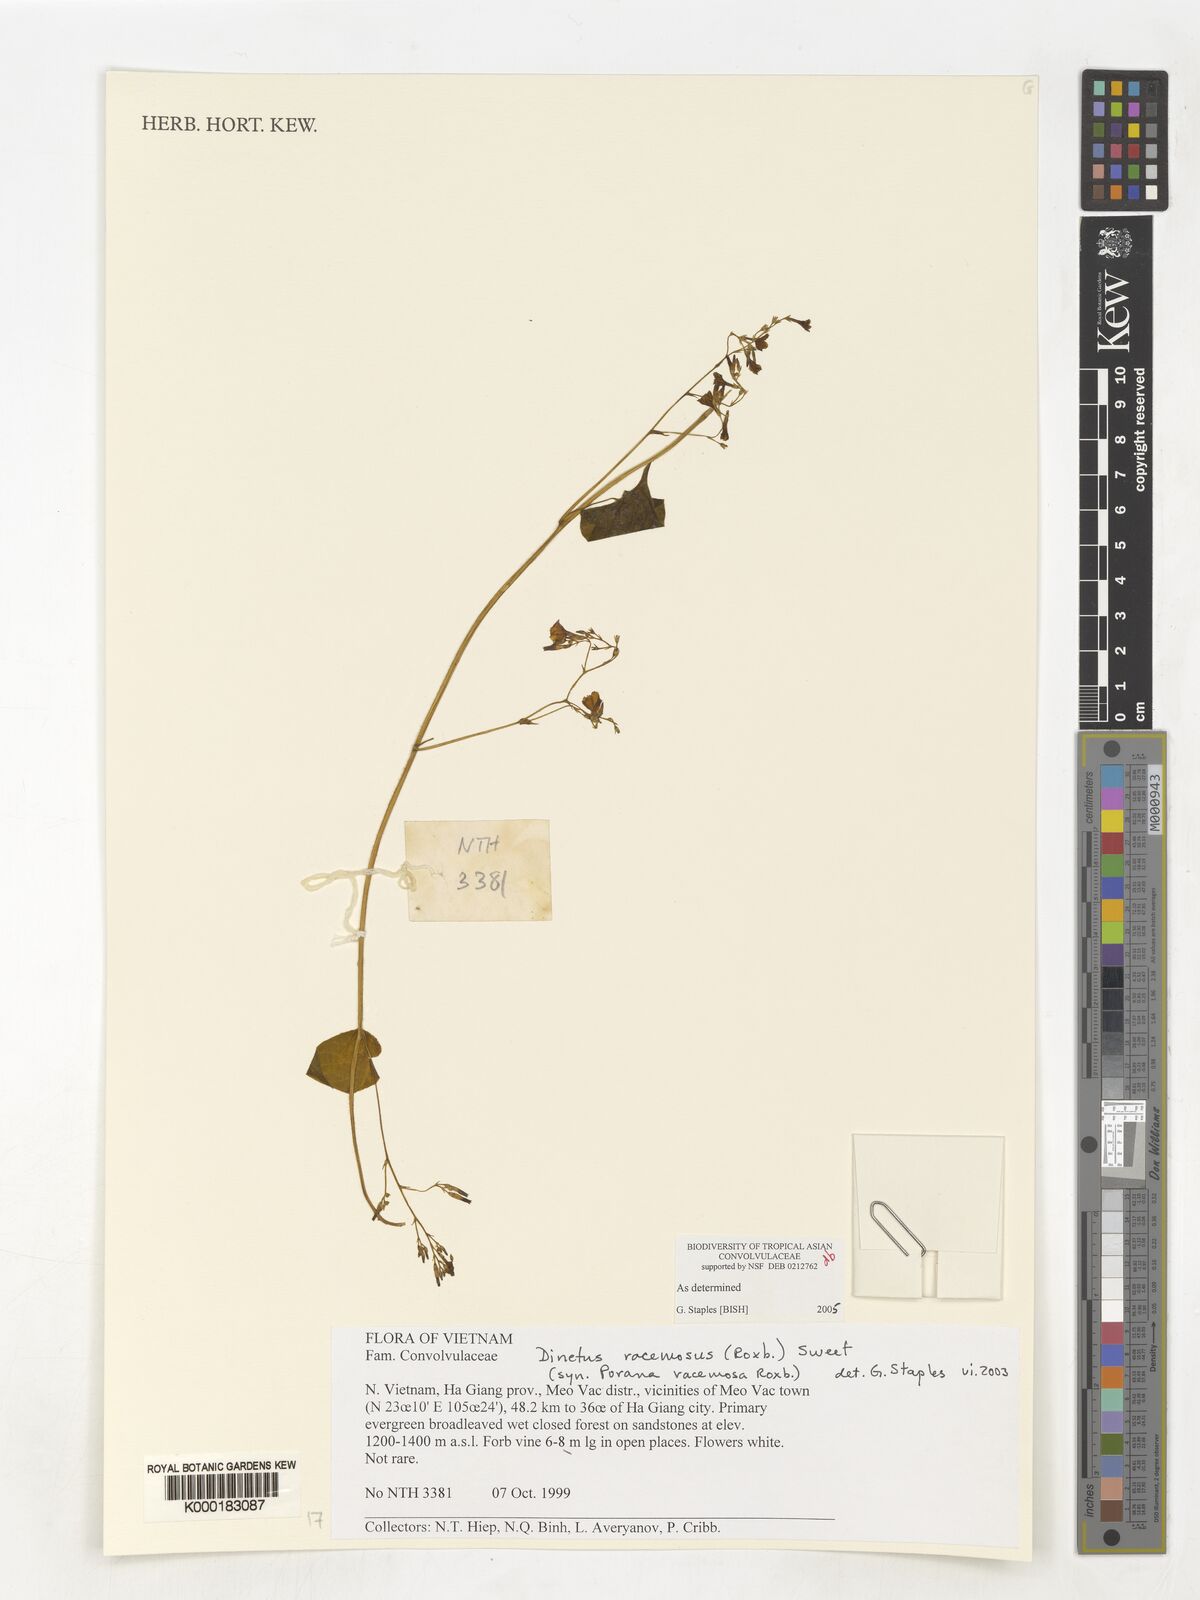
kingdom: Plantae
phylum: Tracheophyta
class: Magnoliopsida
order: Solanales
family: Convolvulaceae
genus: Dinetus
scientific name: Dinetus racemosus
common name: Snowcreeper
